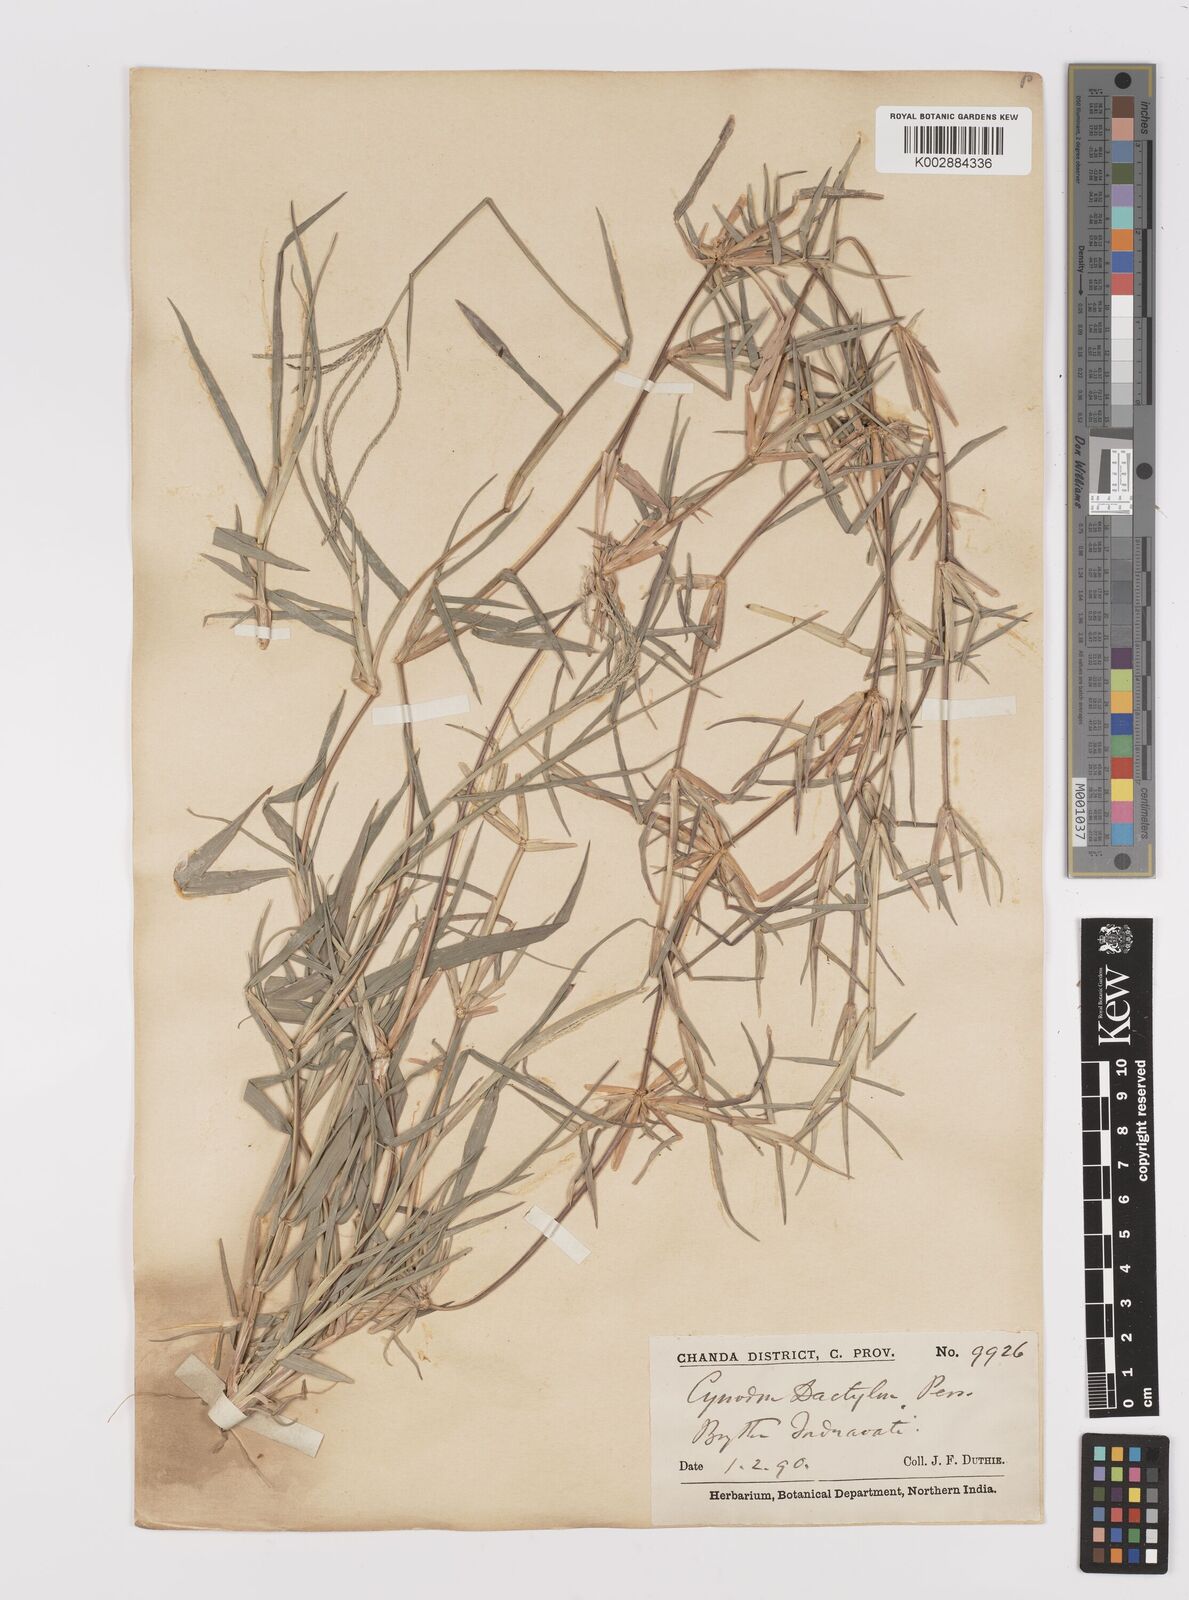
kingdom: Plantae
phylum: Tracheophyta
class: Liliopsida
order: Poales
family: Poaceae
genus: Cynodon
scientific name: Cynodon dactylon
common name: Bermuda grass
